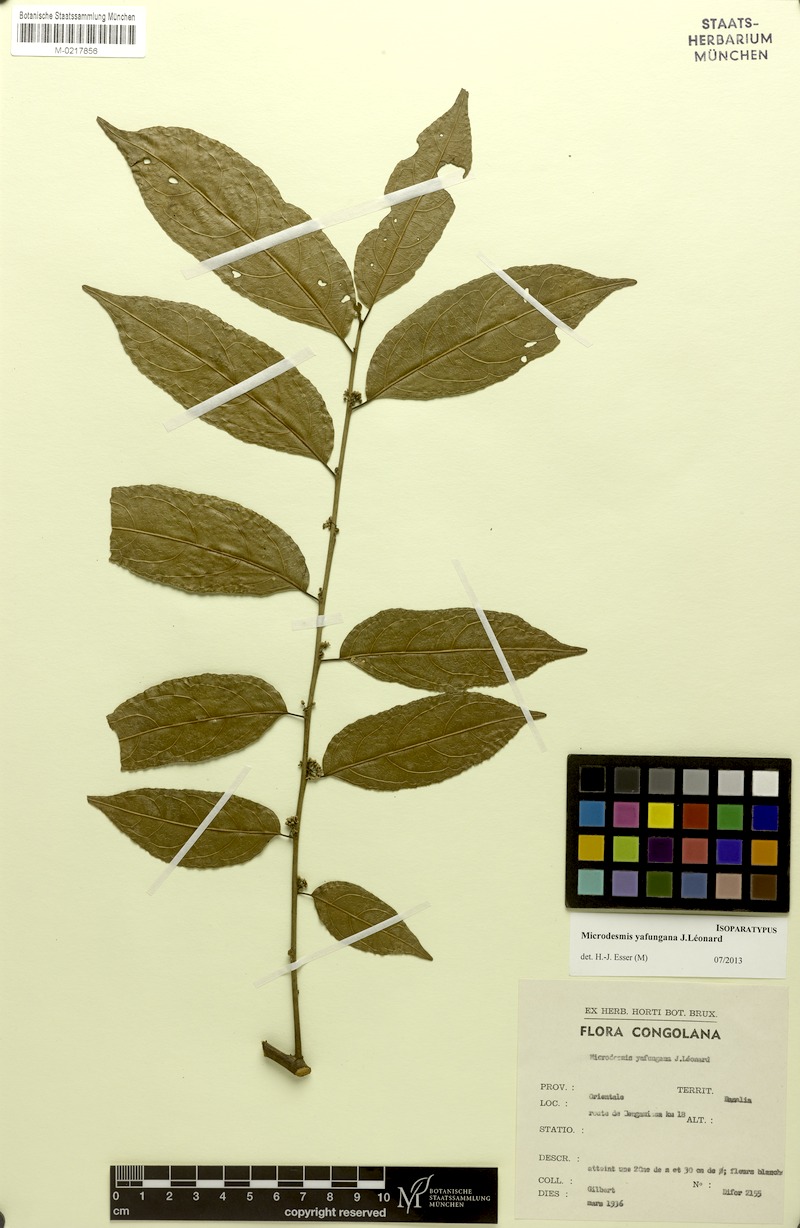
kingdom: Plantae
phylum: Tracheophyta
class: Magnoliopsida
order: Malpighiales
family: Pandaceae
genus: Microdesmis
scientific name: Microdesmis yafungana
